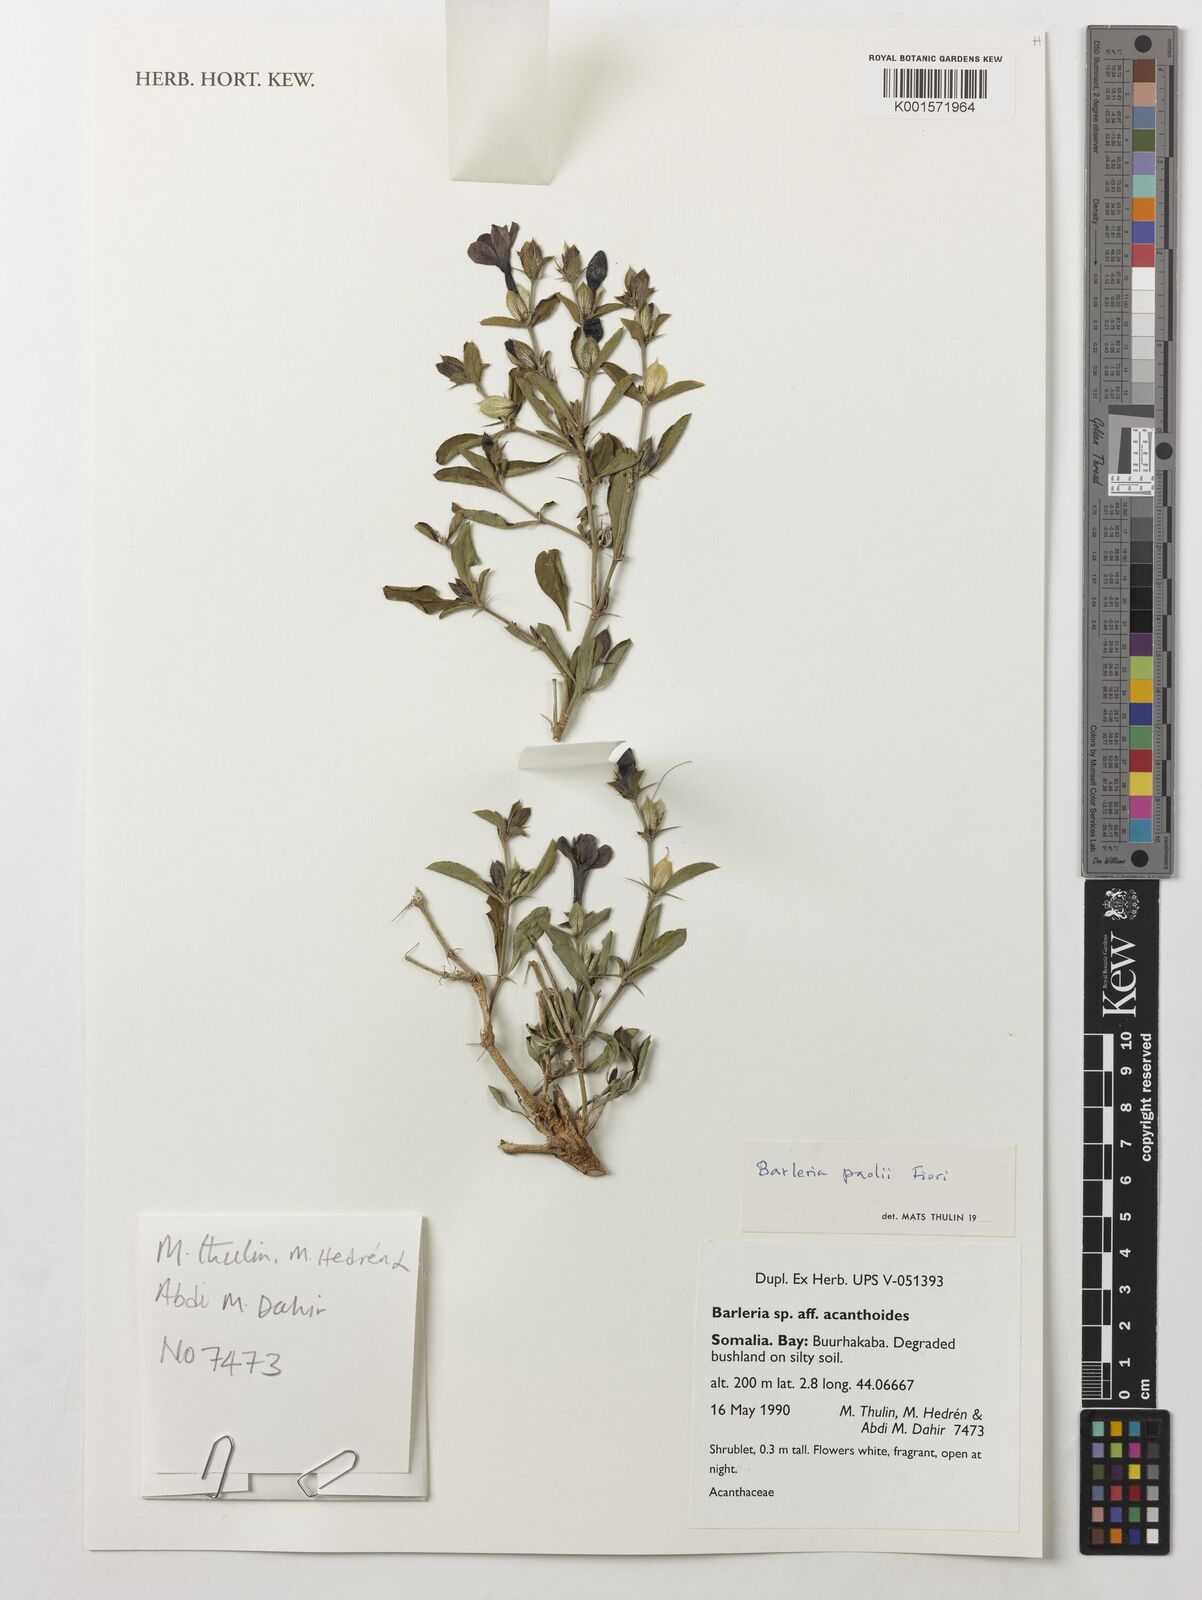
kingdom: Plantae
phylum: Tracheophyta
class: Magnoliopsida
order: Lamiales
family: Acanthaceae
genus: Barleria
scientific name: Barleria paolii
